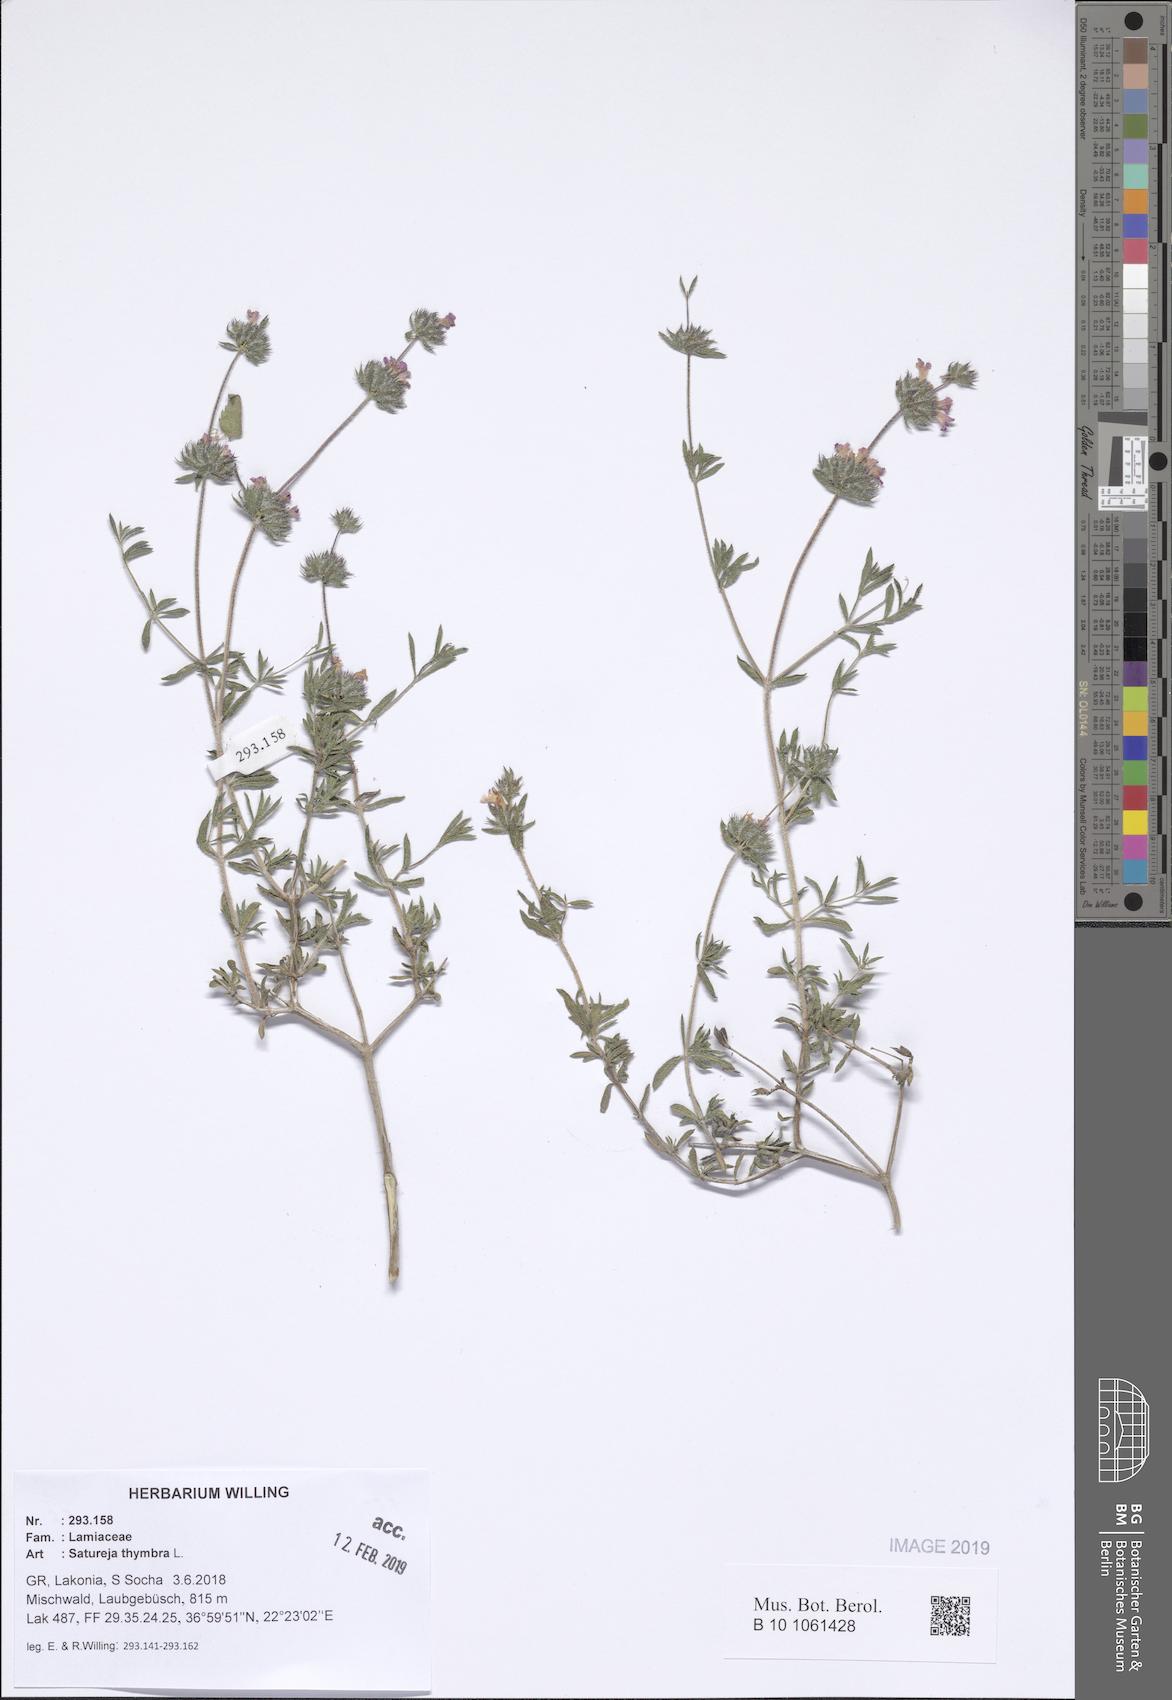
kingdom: Plantae
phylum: Tracheophyta
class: Magnoliopsida
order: Lamiales
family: Lamiaceae
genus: Satureja
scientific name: Satureja thymbra
